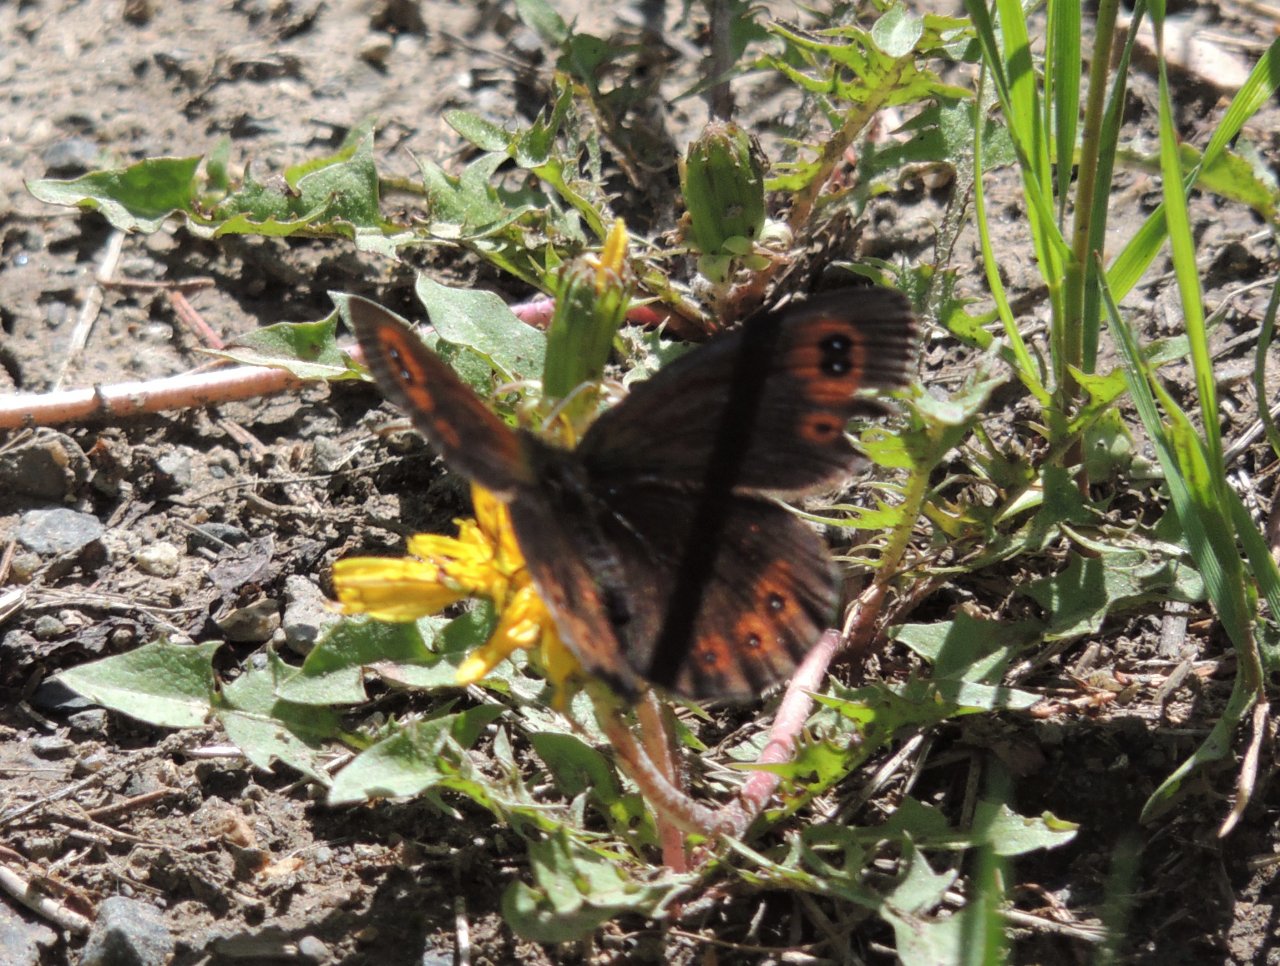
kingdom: Animalia
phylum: Arthropoda
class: Insecta
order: Lepidoptera
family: Nymphalidae
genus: Erebia
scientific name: Erebia epipsodea
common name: Common Alpine
